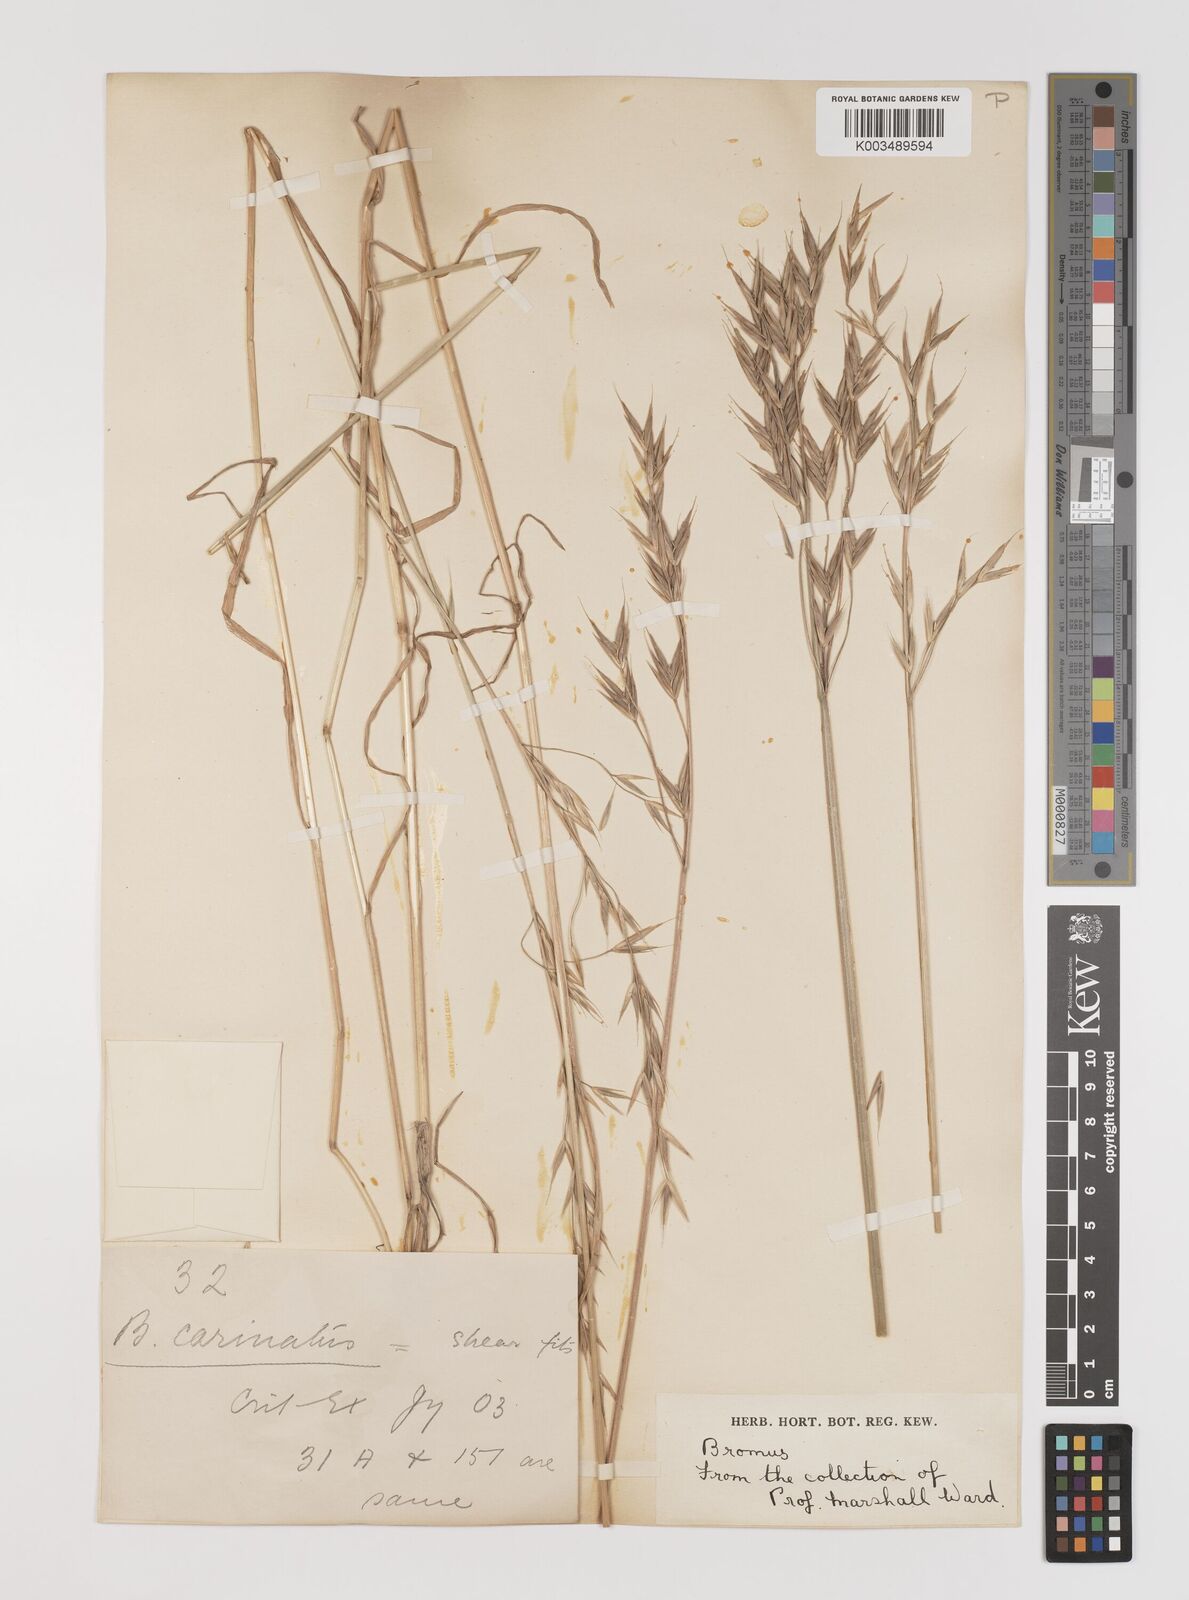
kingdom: Plantae
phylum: Tracheophyta
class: Liliopsida
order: Poales
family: Poaceae
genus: Bromus
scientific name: Bromus carinatus
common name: Mountain brome
